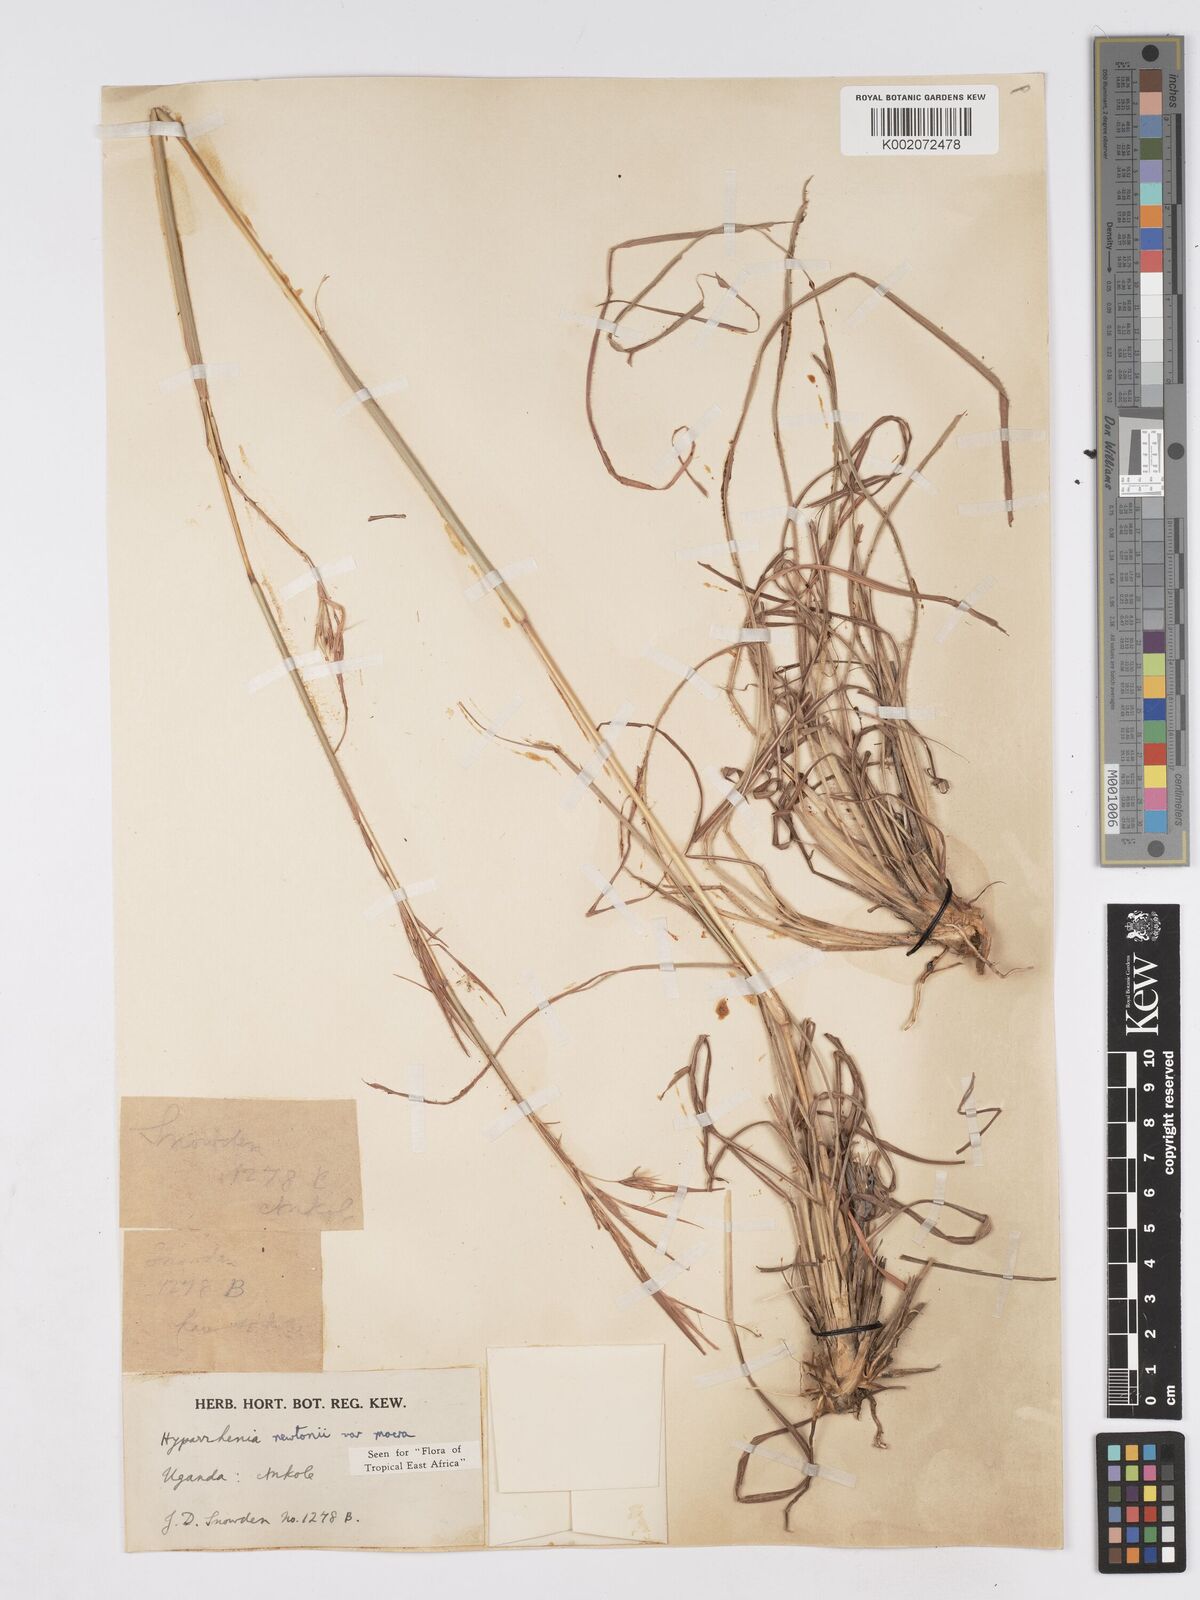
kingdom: Plantae
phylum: Tracheophyta
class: Liliopsida
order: Poales
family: Poaceae
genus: Hyparrhenia
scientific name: Hyparrhenia newtonii
